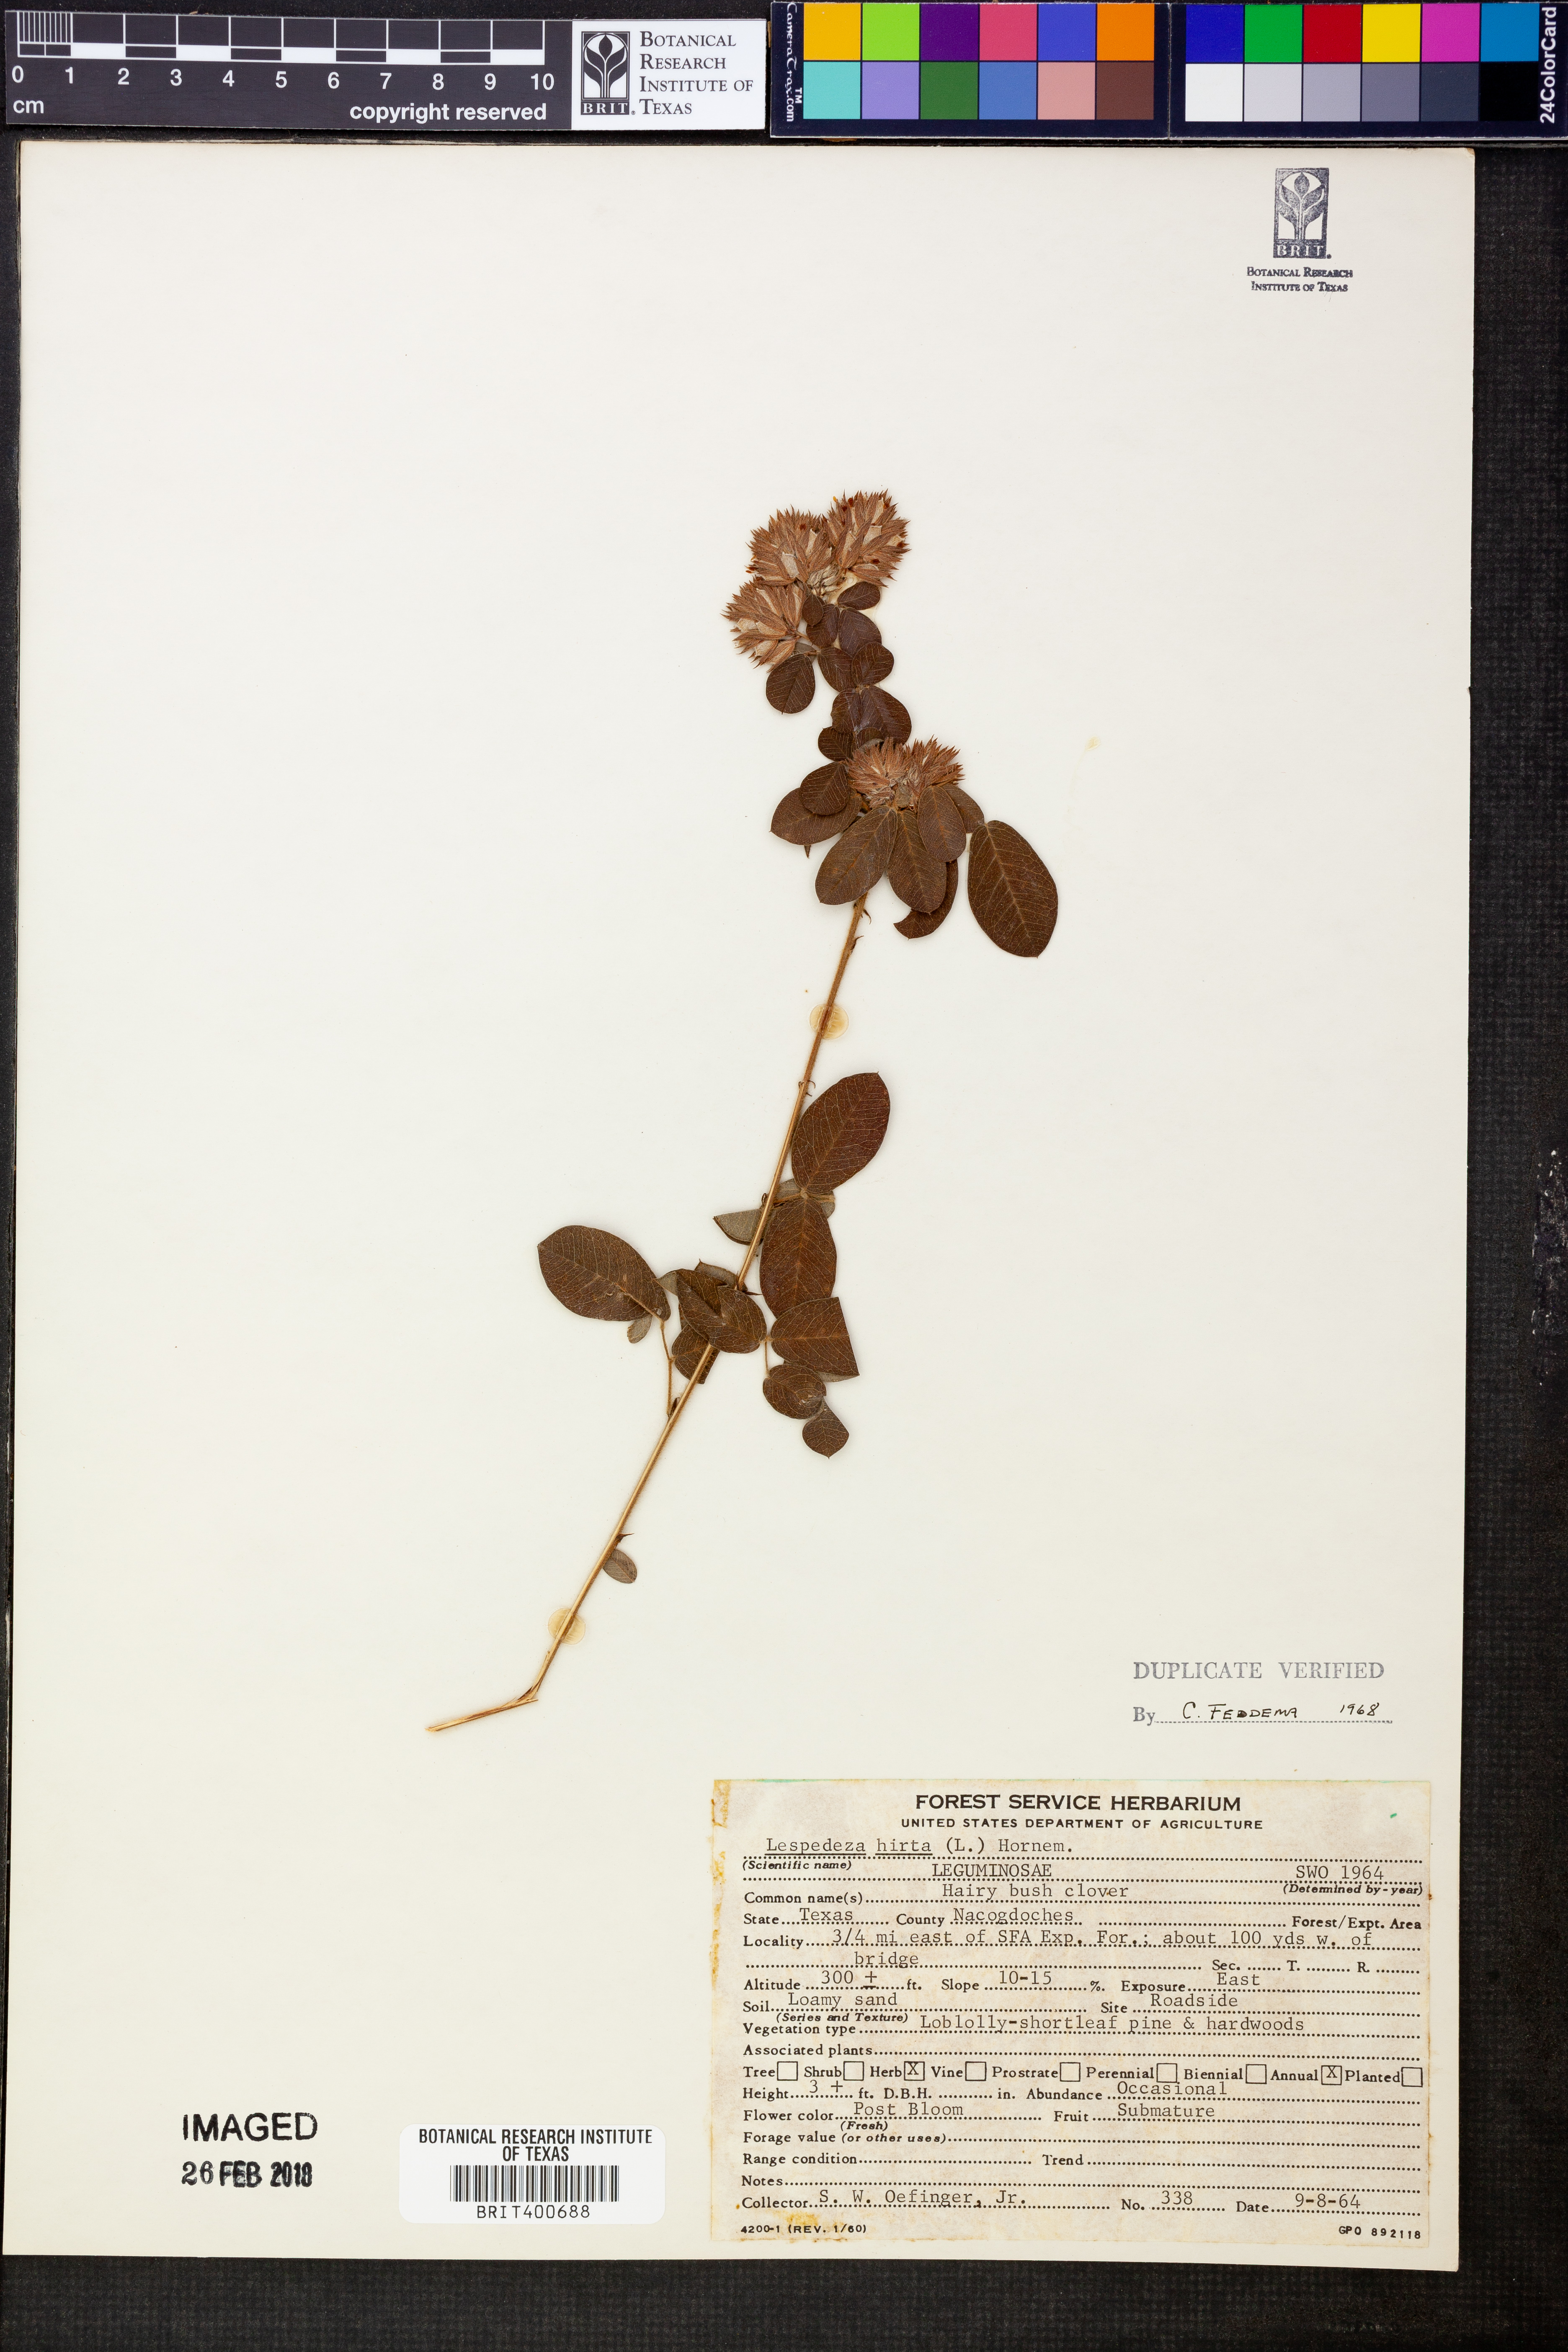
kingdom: Plantae
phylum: Tracheophyta
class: Magnoliopsida
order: Fabales
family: Fabaceae
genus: Lespedeza
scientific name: Lespedeza hirta
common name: Hairy lespedeza
